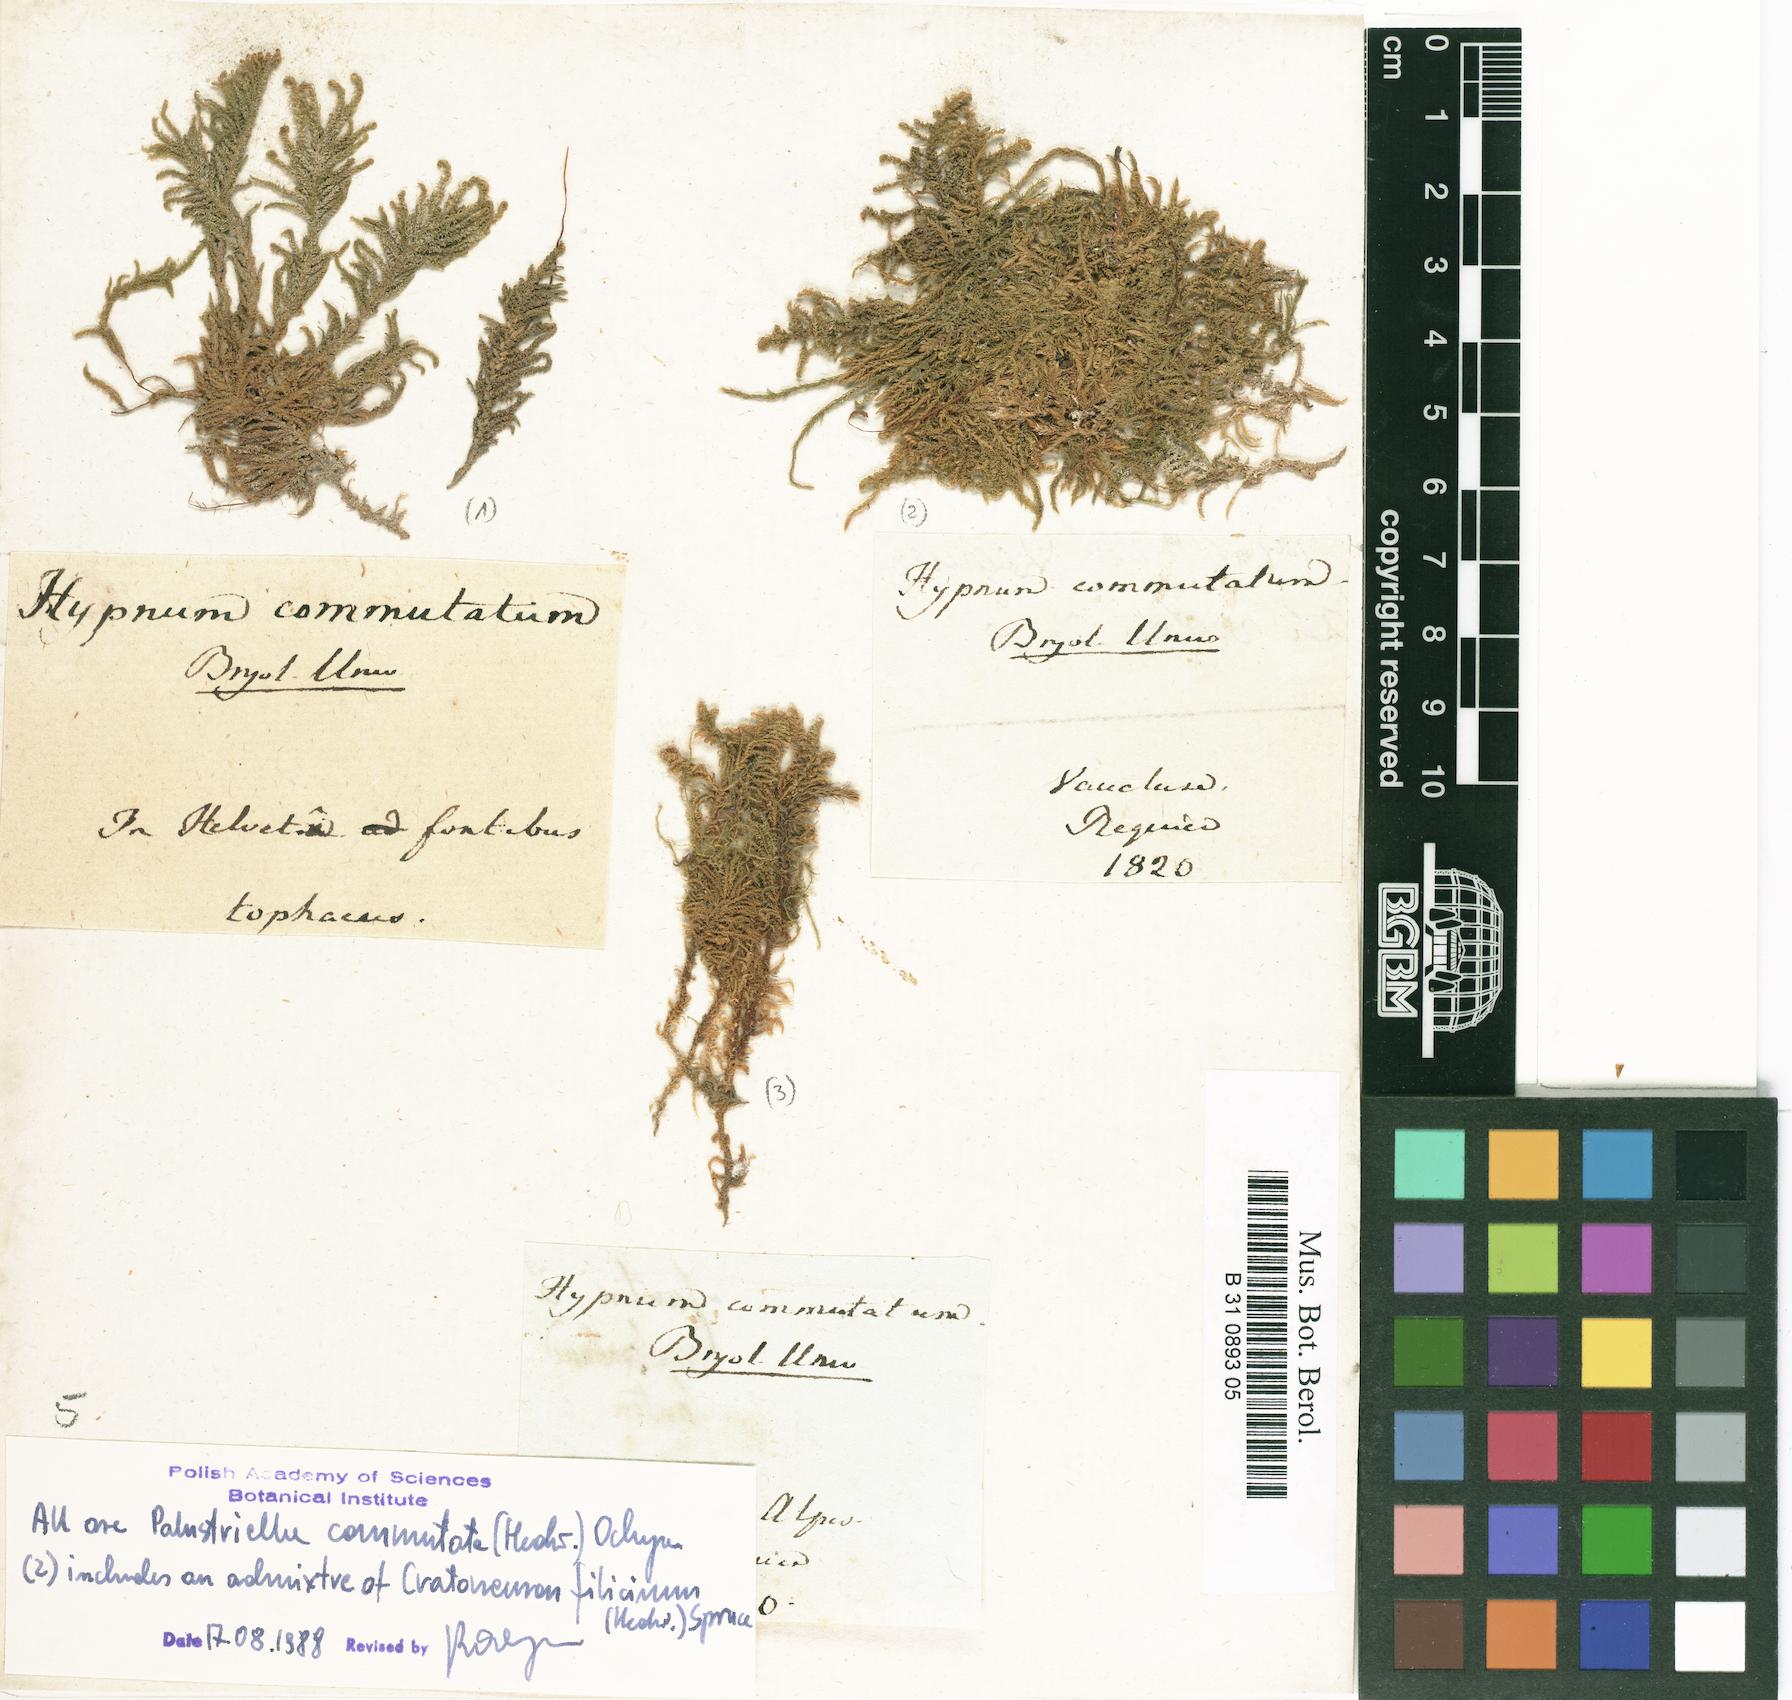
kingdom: Plantae
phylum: Bryophyta
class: Bryopsida
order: Hypnales
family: Amblystegiaceae
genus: Palustriella
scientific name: Palustriella commutata
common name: Curled hook-moss
